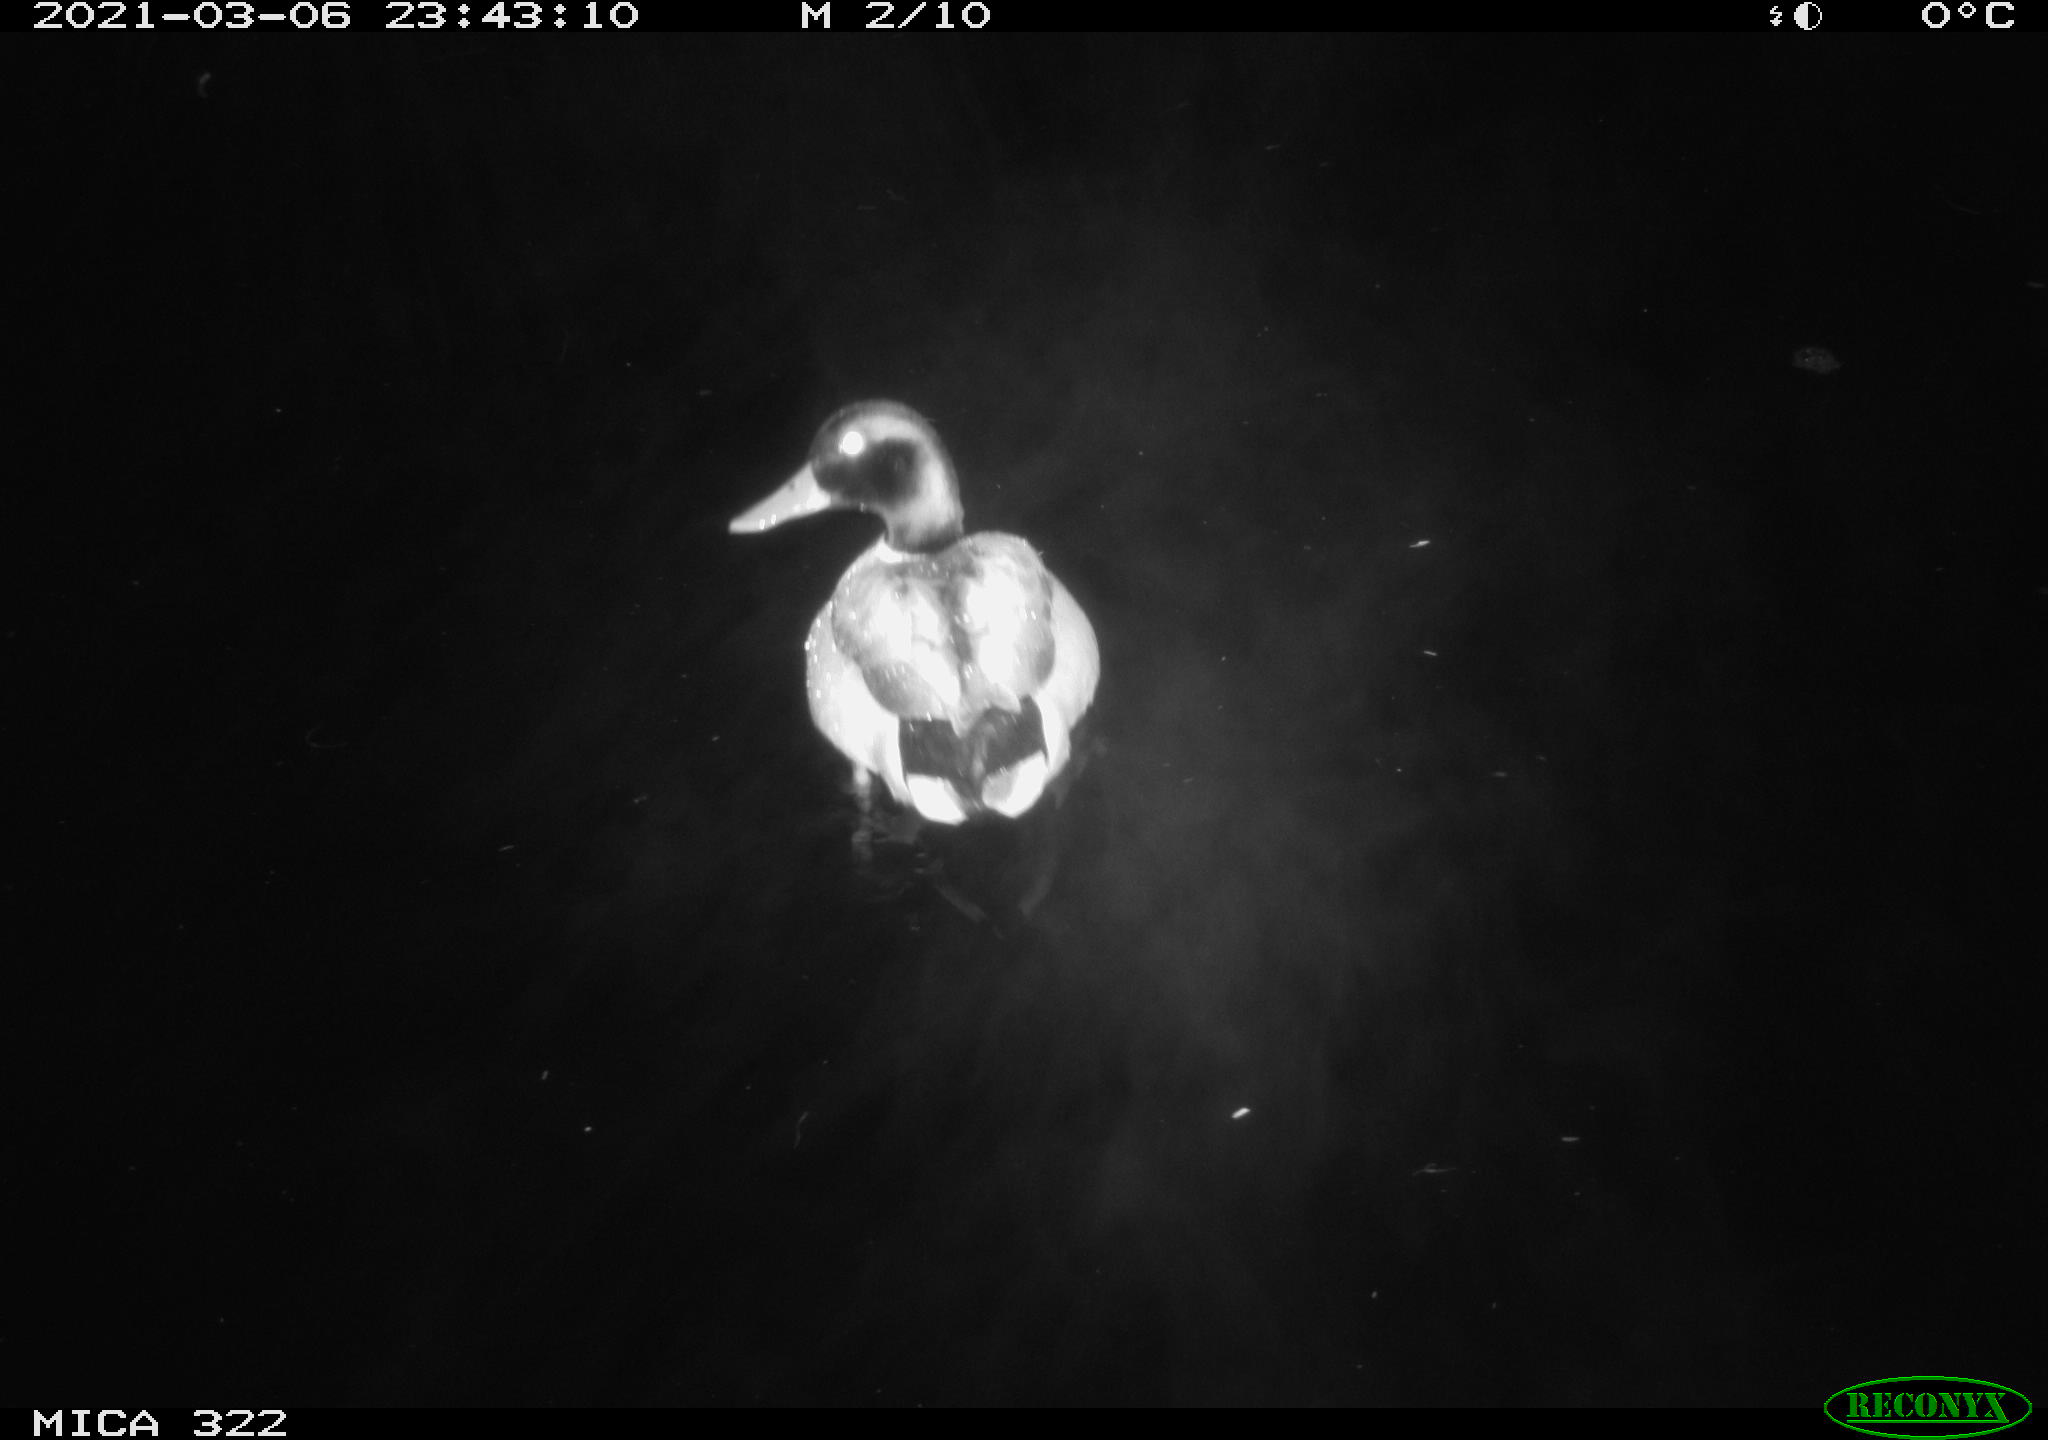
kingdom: Animalia
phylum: Chordata
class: Aves
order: Anseriformes
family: Anatidae
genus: Anas
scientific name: Anas platyrhynchos
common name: Mallard
